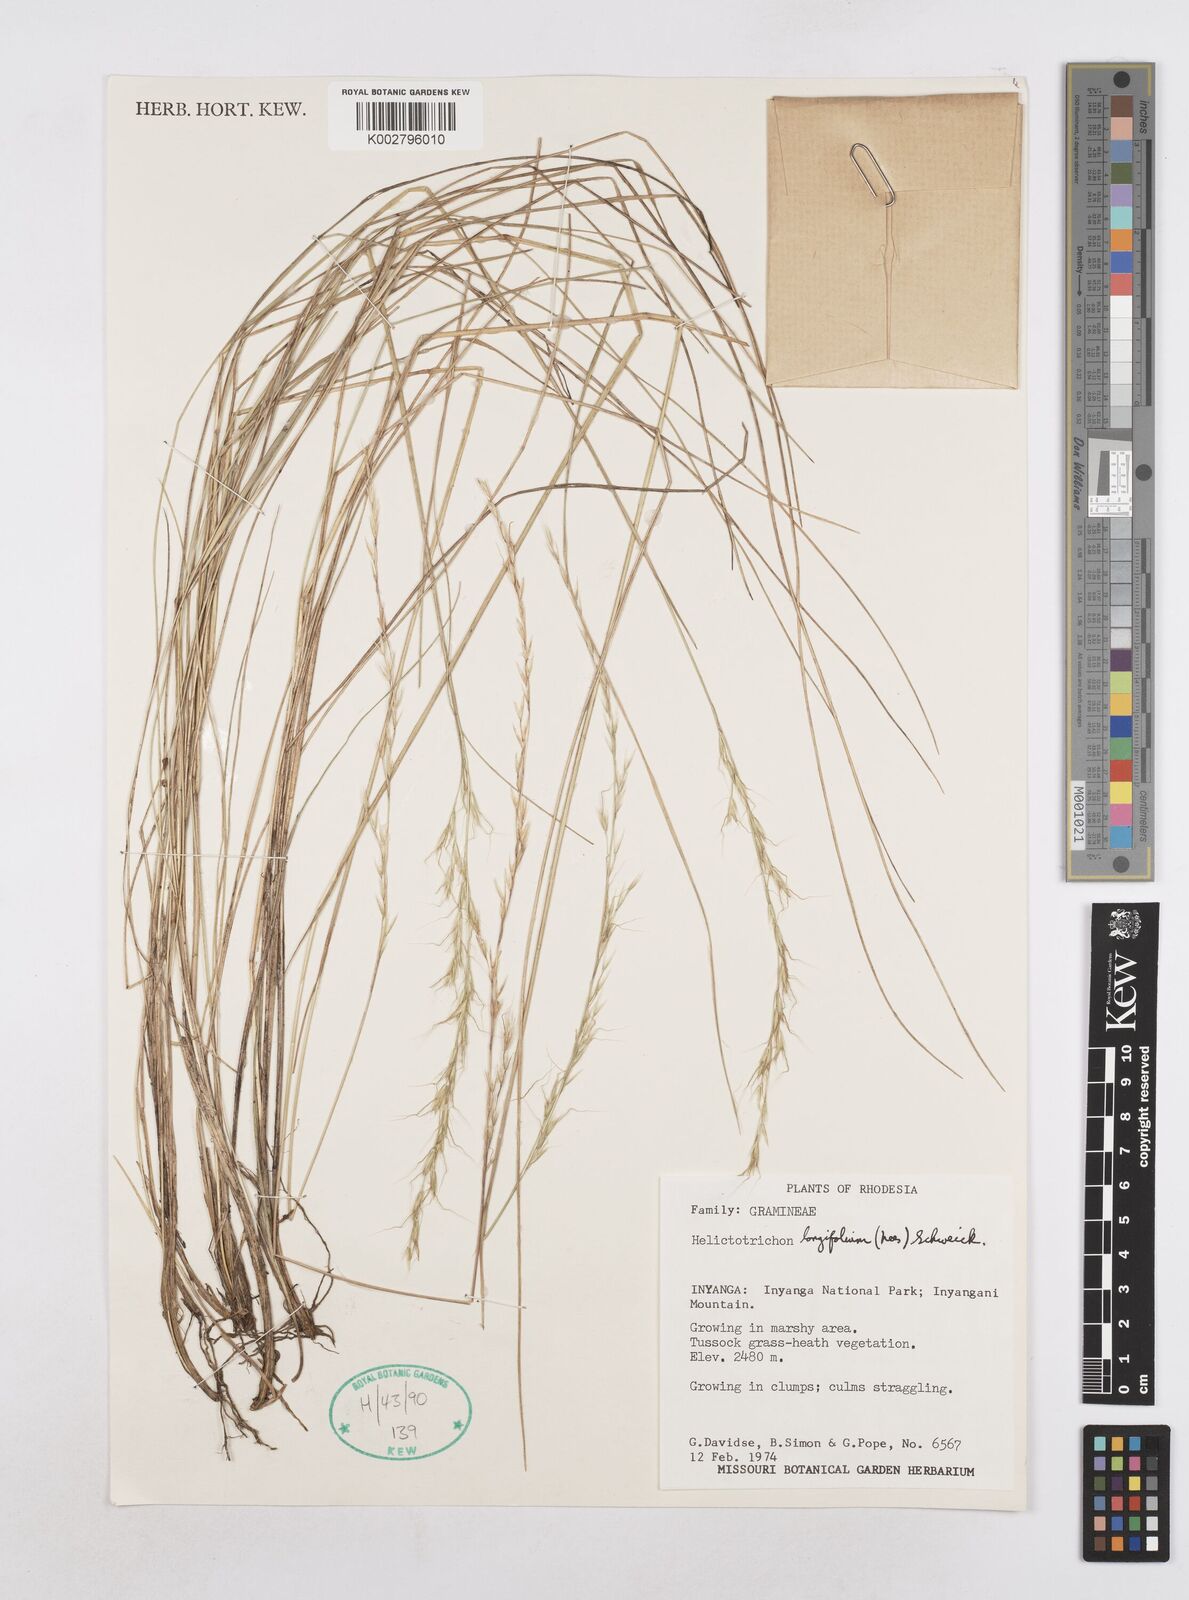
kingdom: Plantae
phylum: Tracheophyta
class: Liliopsida
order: Poales
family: Poaceae
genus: Trisetopsis
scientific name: Trisetopsis longifolia
